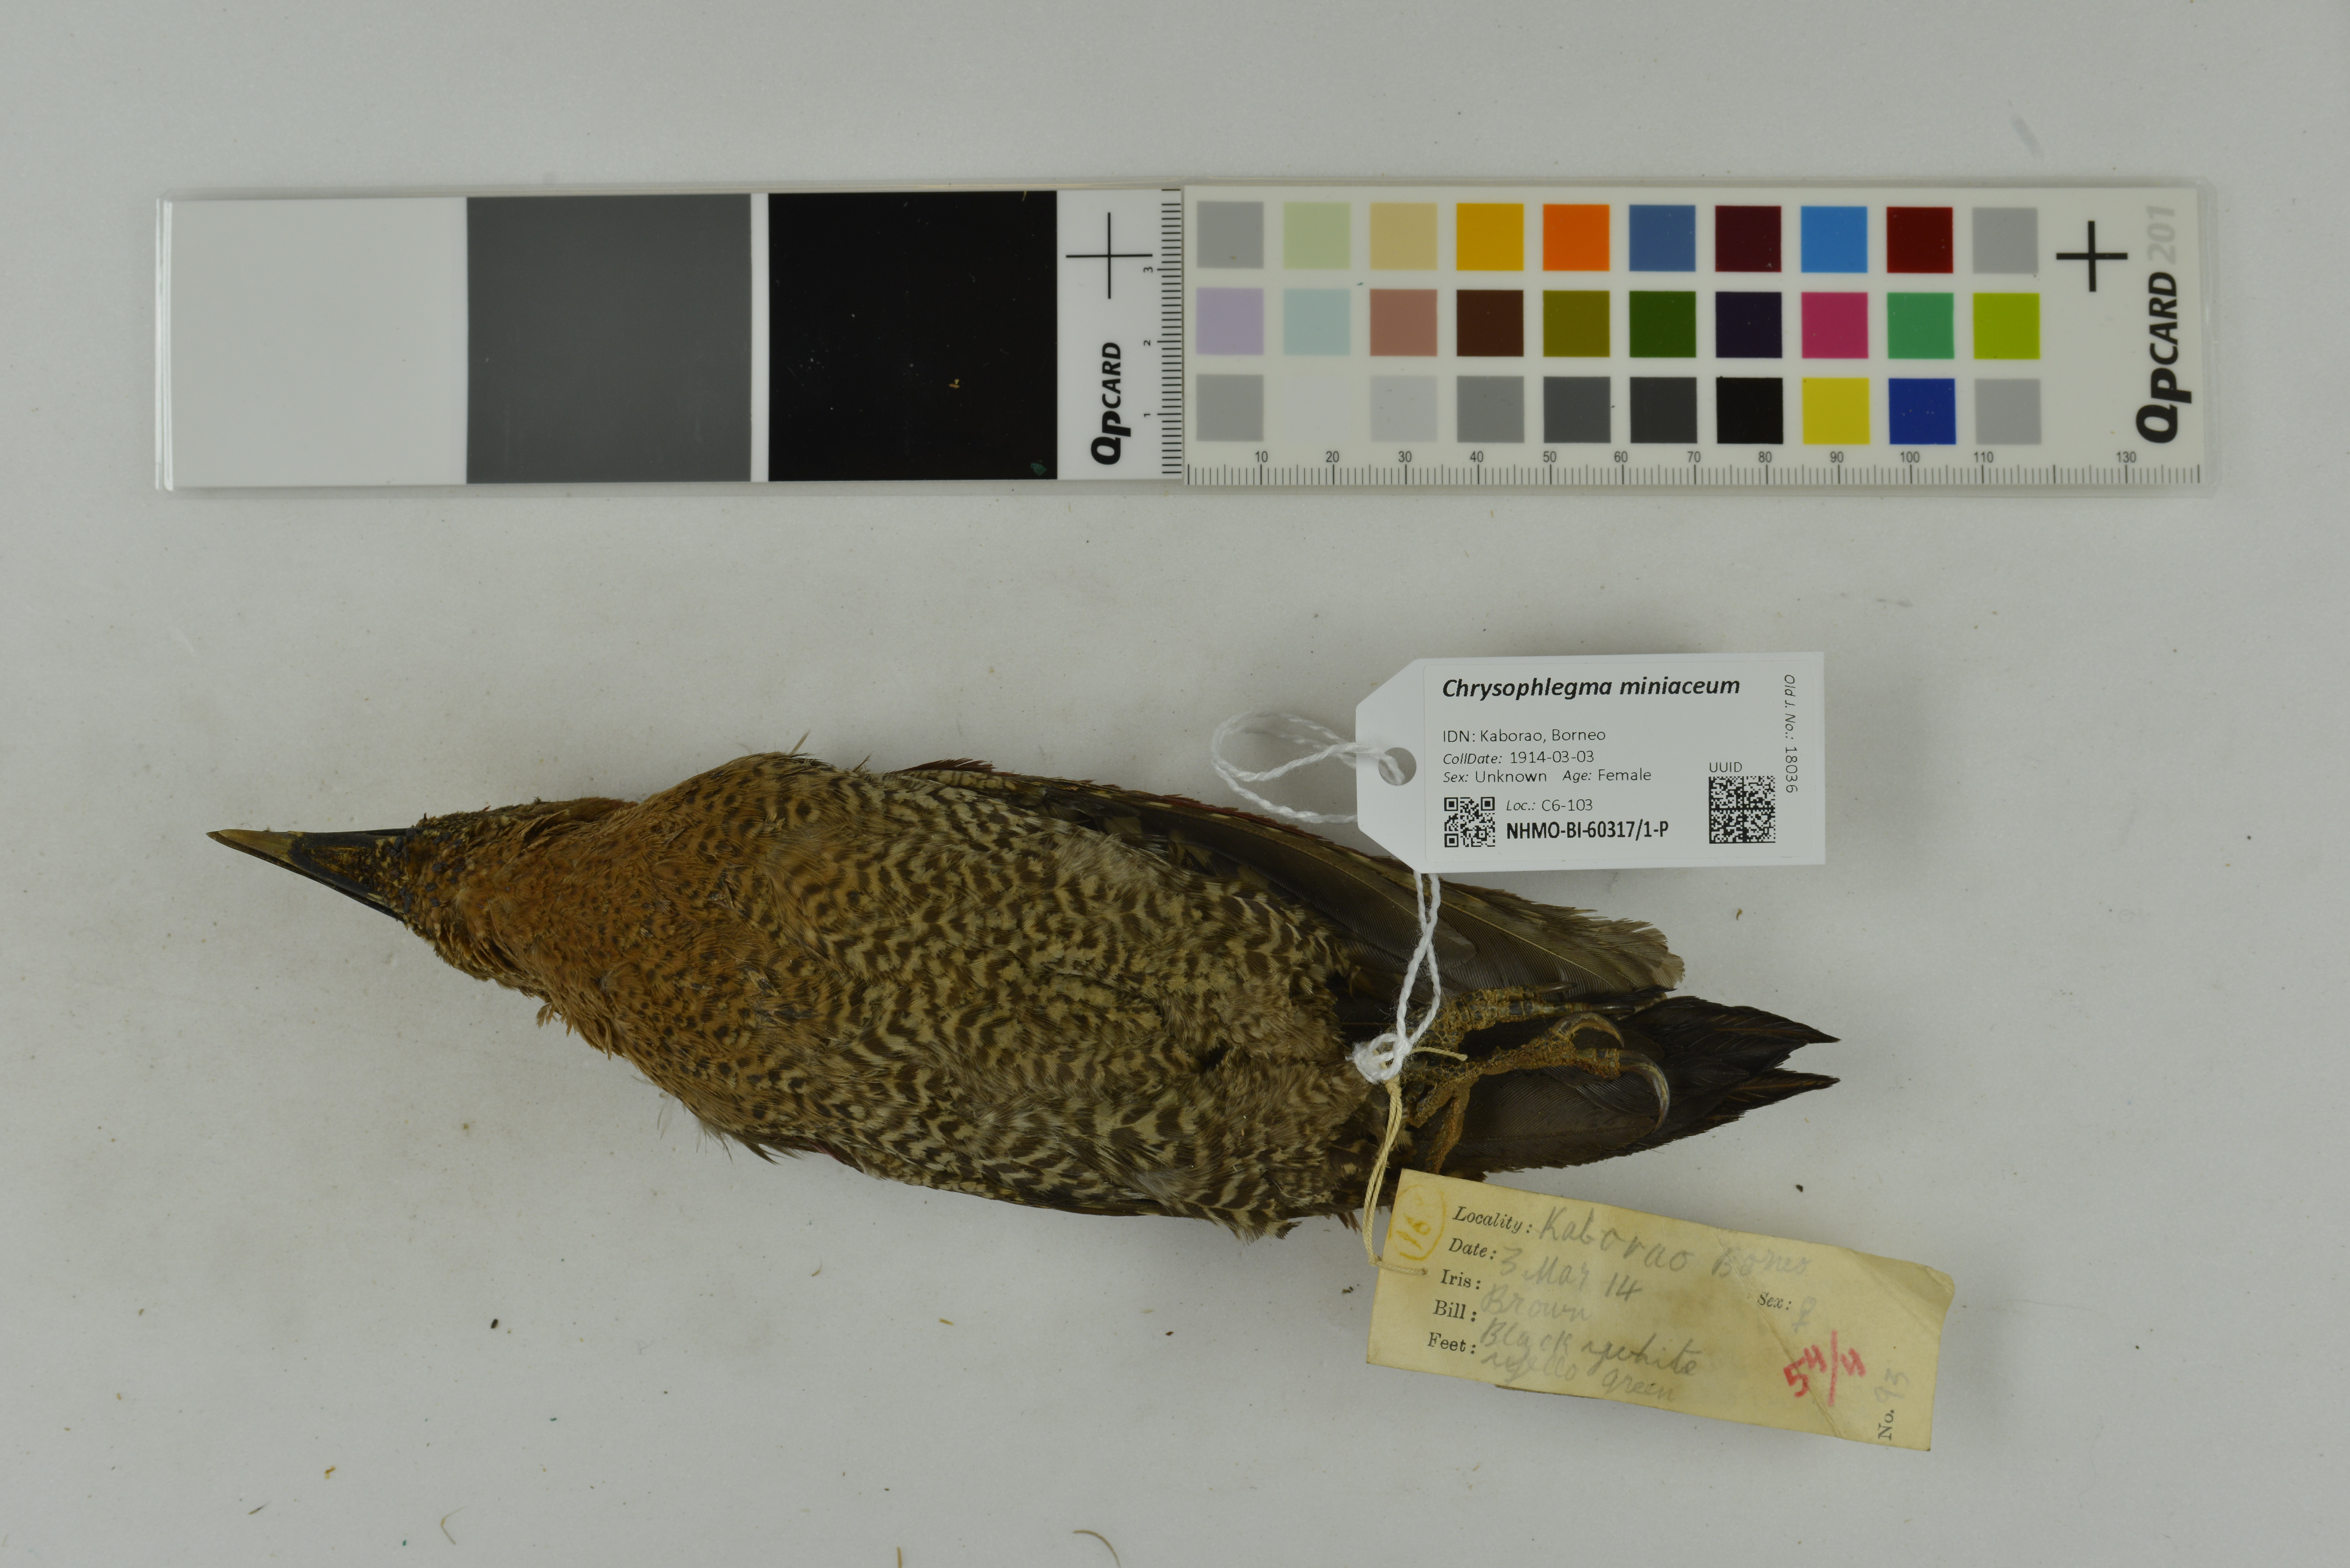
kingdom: Animalia
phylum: Chordata
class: Aves
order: Piciformes
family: Picidae
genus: Chrysophlegma
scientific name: Chrysophlegma miniaceum
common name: Banded woodpecker
